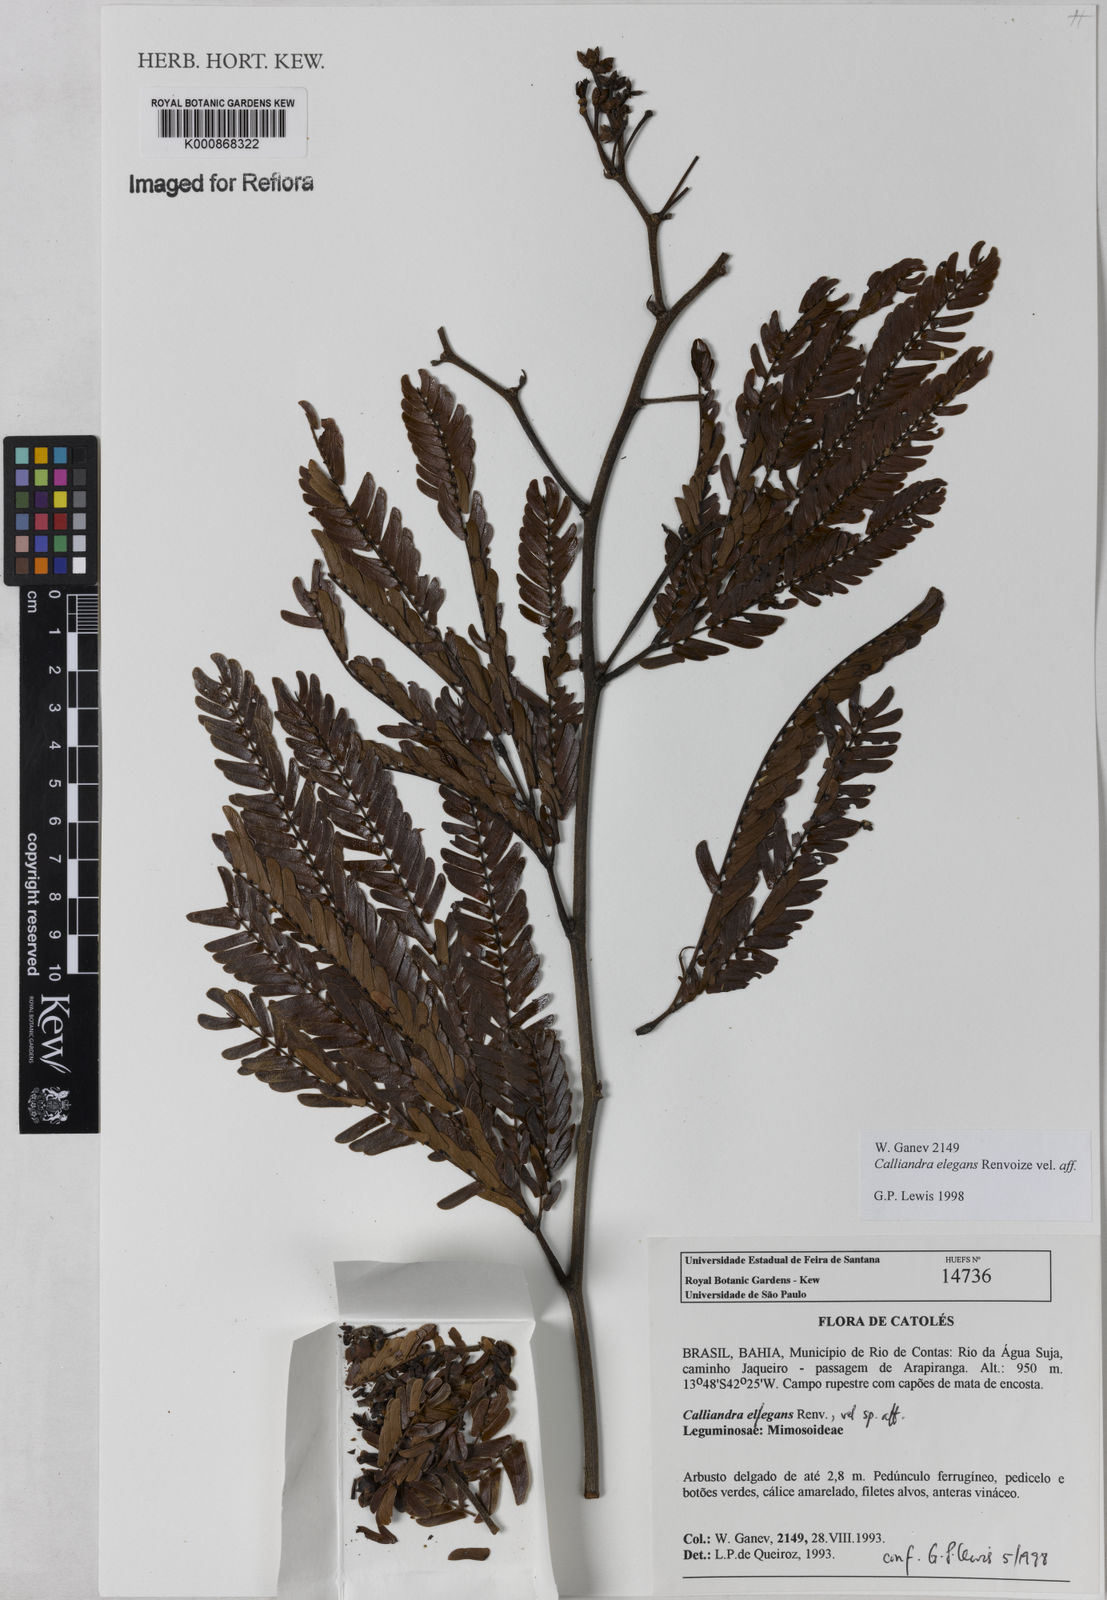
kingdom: Plantae
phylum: Tracheophyta
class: Magnoliopsida
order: Fabales
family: Fabaceae
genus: Calliandra
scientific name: Calliandra elegans
